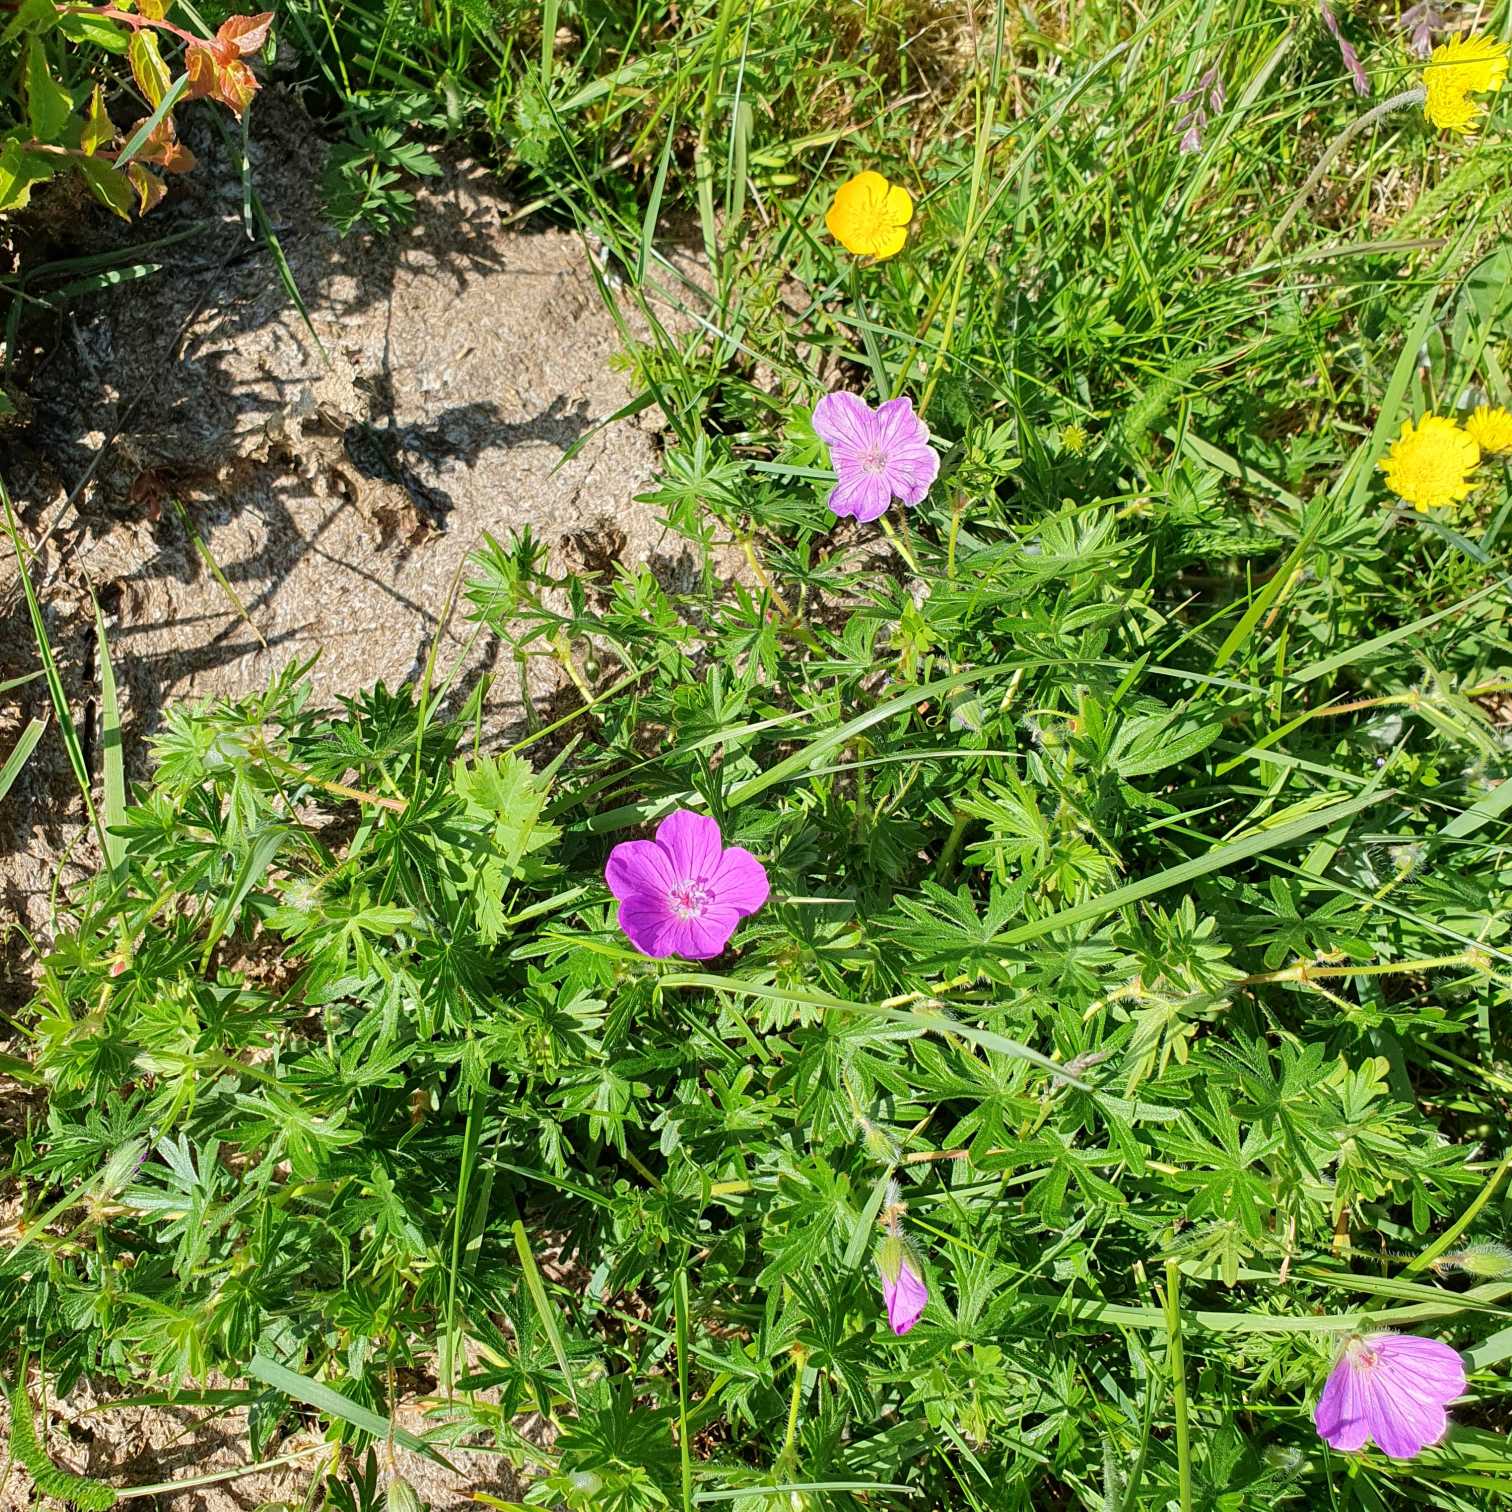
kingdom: Plantae
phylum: Tracheophyta
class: Magnoliopsida
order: Geraniales
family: Geraniaceae
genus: Geranium
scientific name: Geranium sanguineum
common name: Blodrød storkenæb
